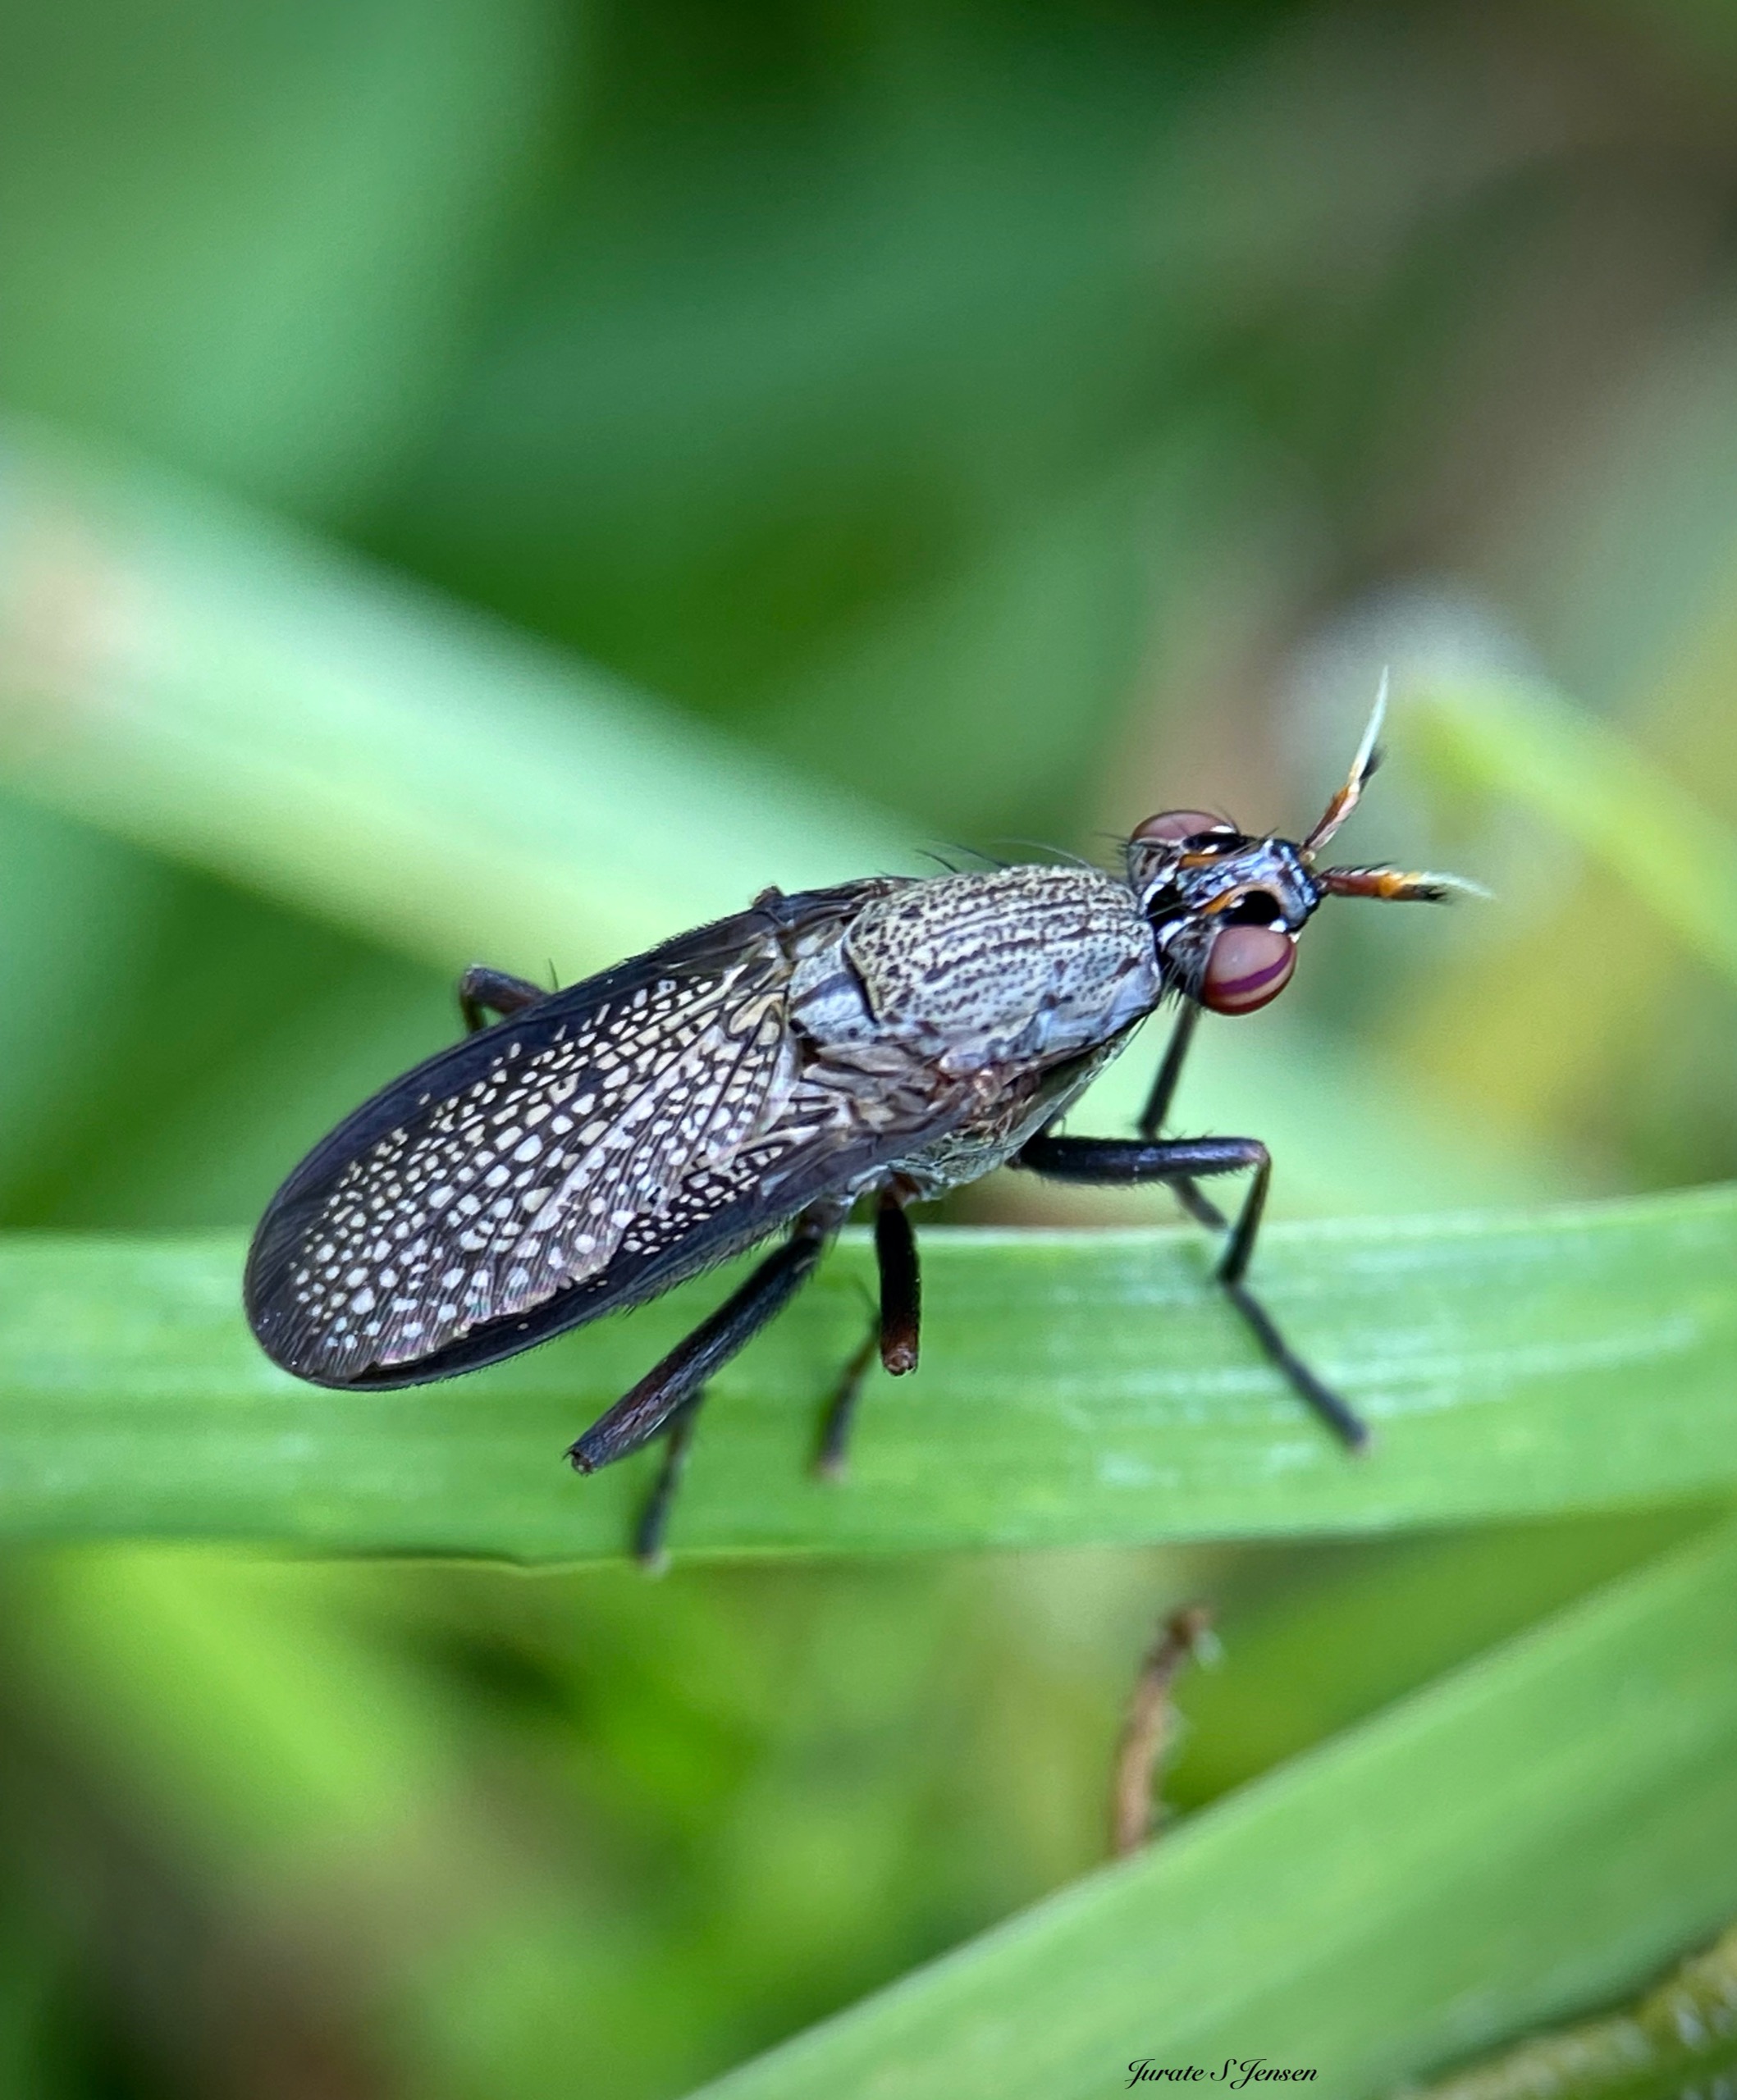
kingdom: Animalia
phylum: Arthropoda
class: Insecta
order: Diptera
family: Sciomyzidae
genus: Coremacera
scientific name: Coremacera marginata
